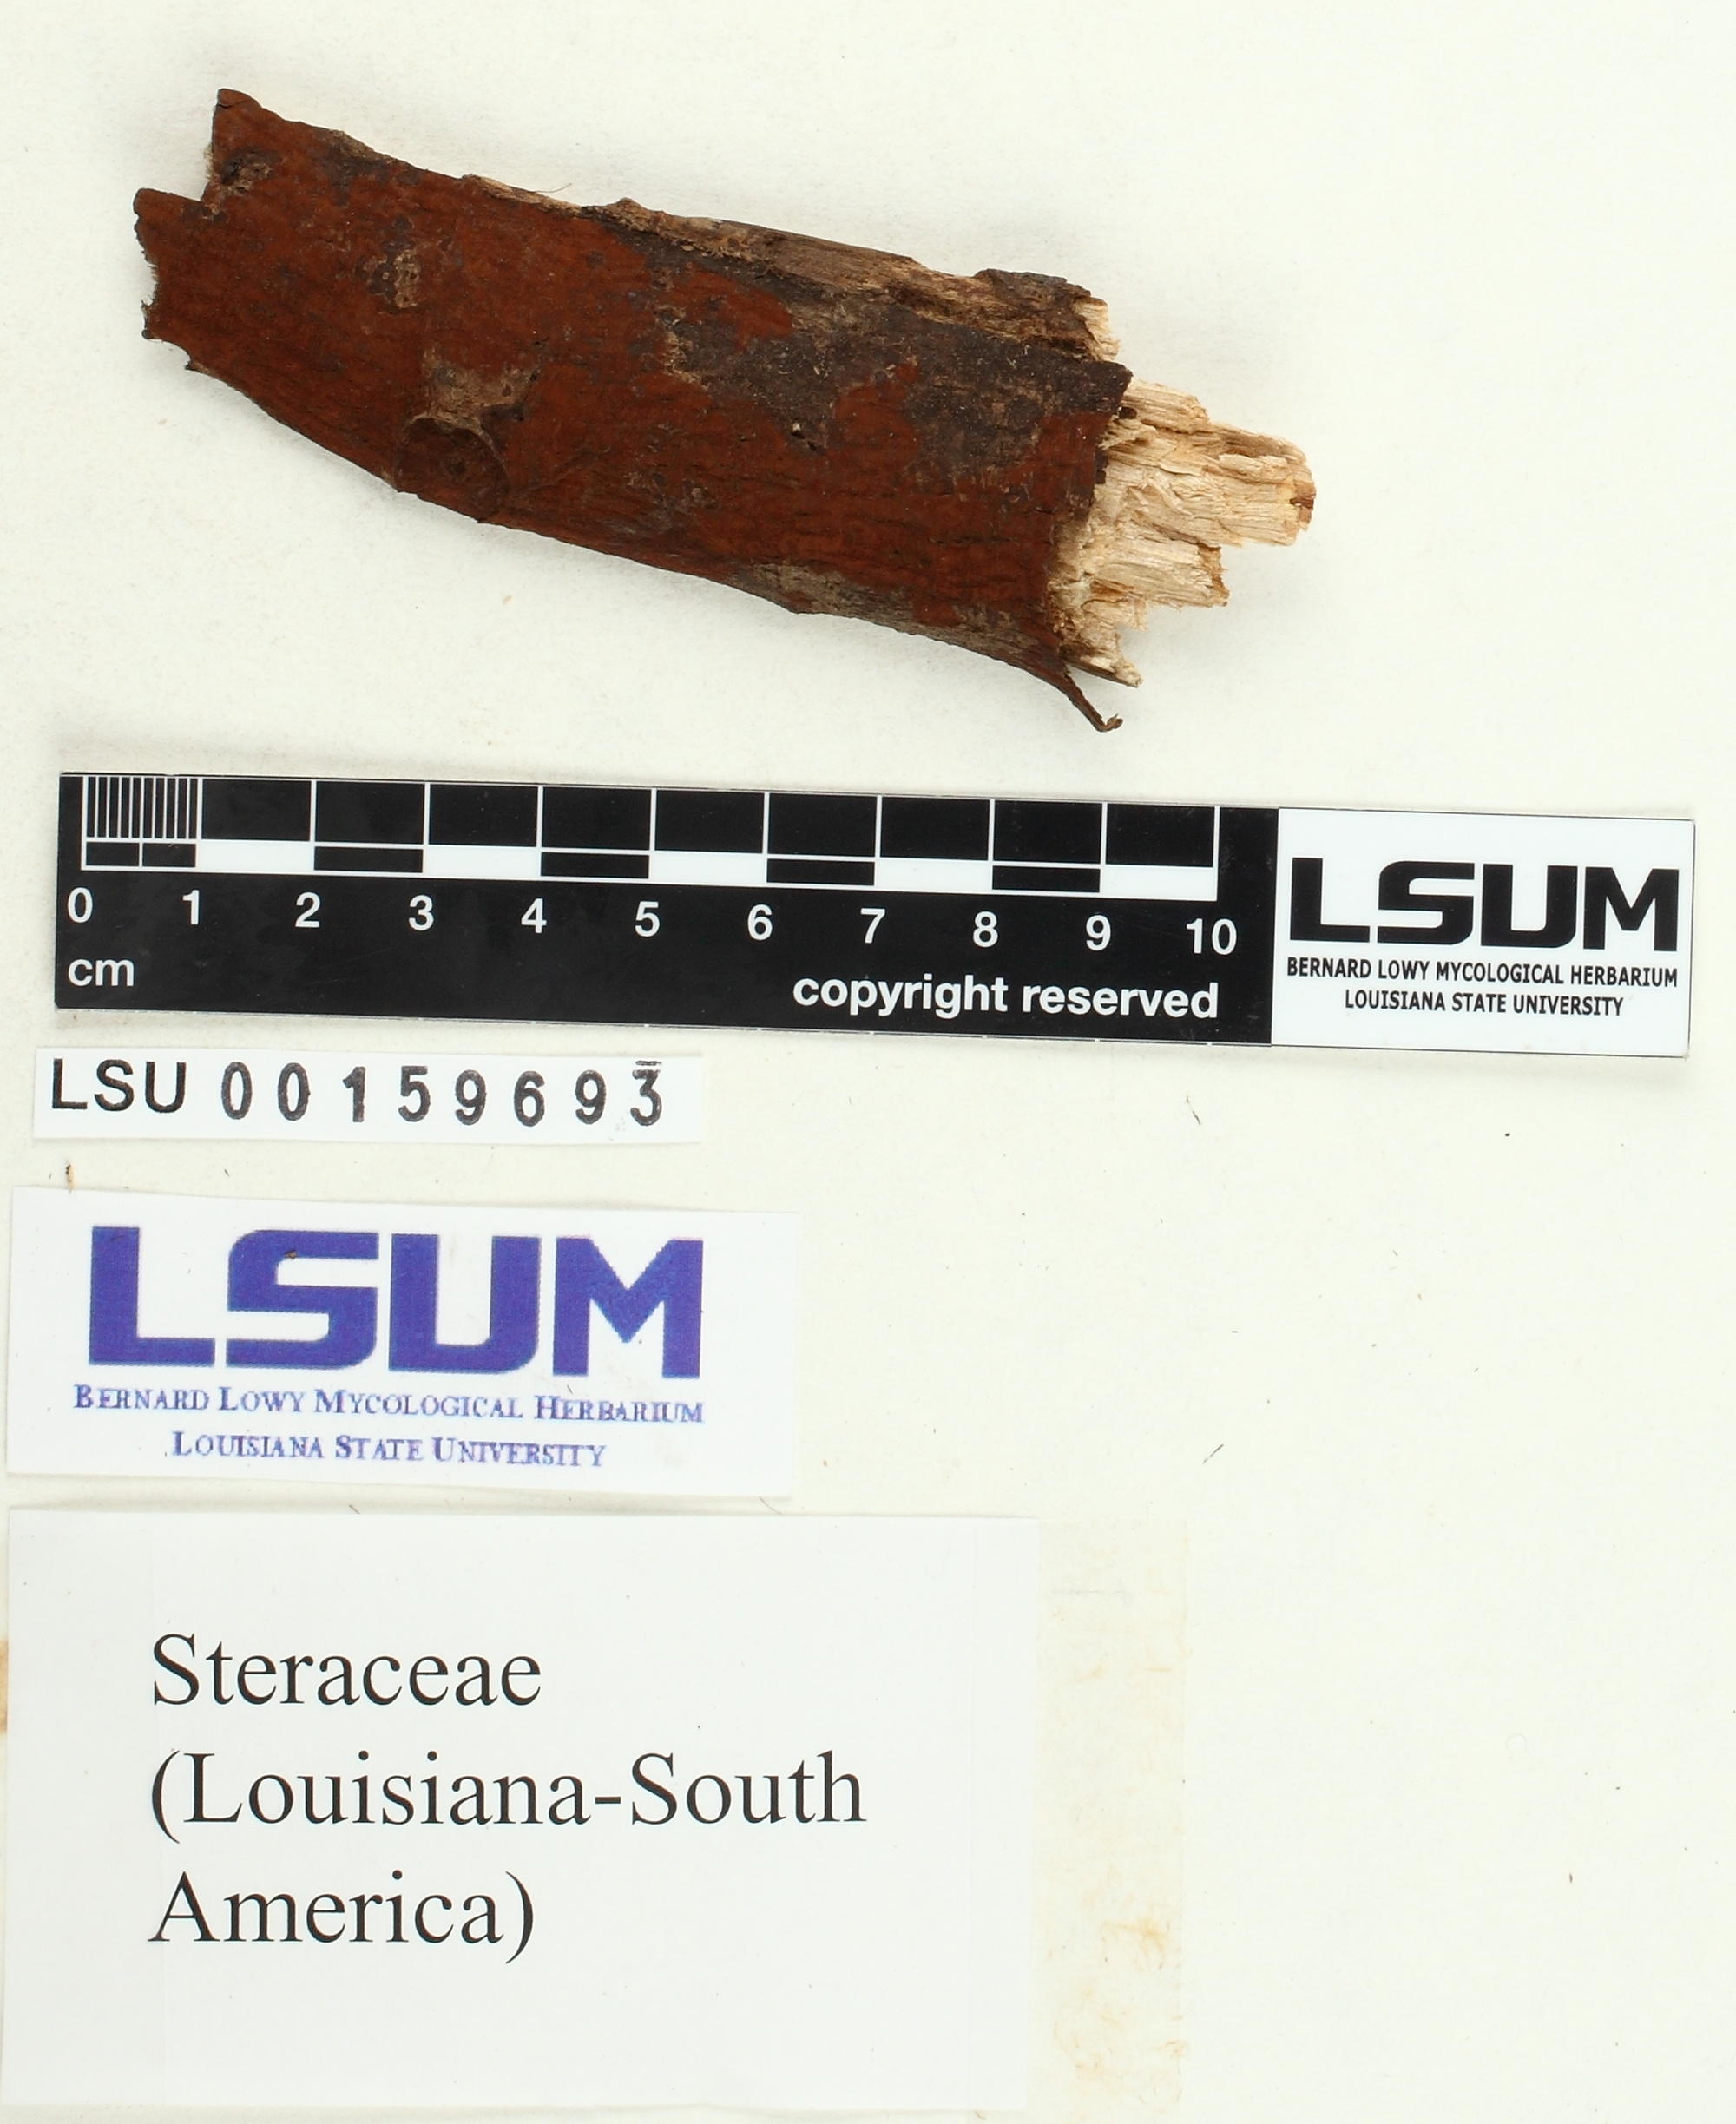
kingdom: Fungi
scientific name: Fungi
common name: Fungi
